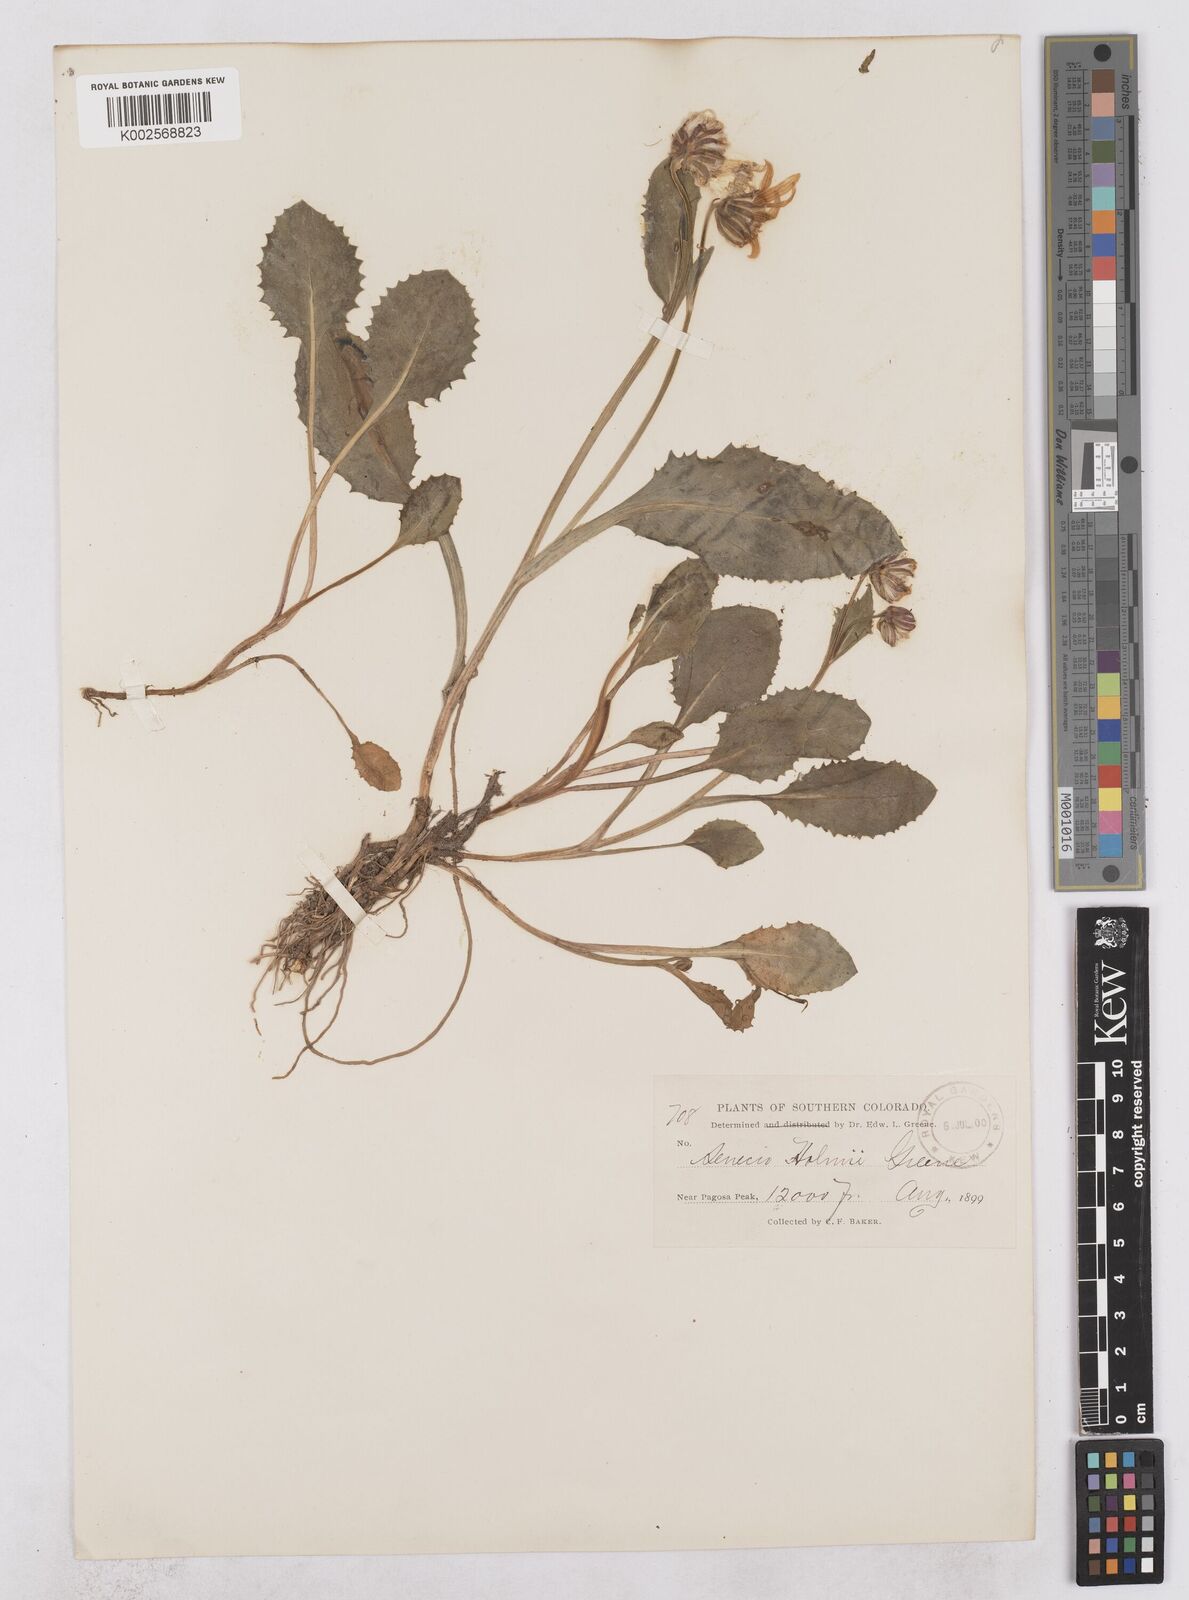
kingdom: Plantae
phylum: Tracheophyta
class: Magnoliopsida
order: Asterales
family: Asteraceae
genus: Senecio
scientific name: Senecio amplectens
